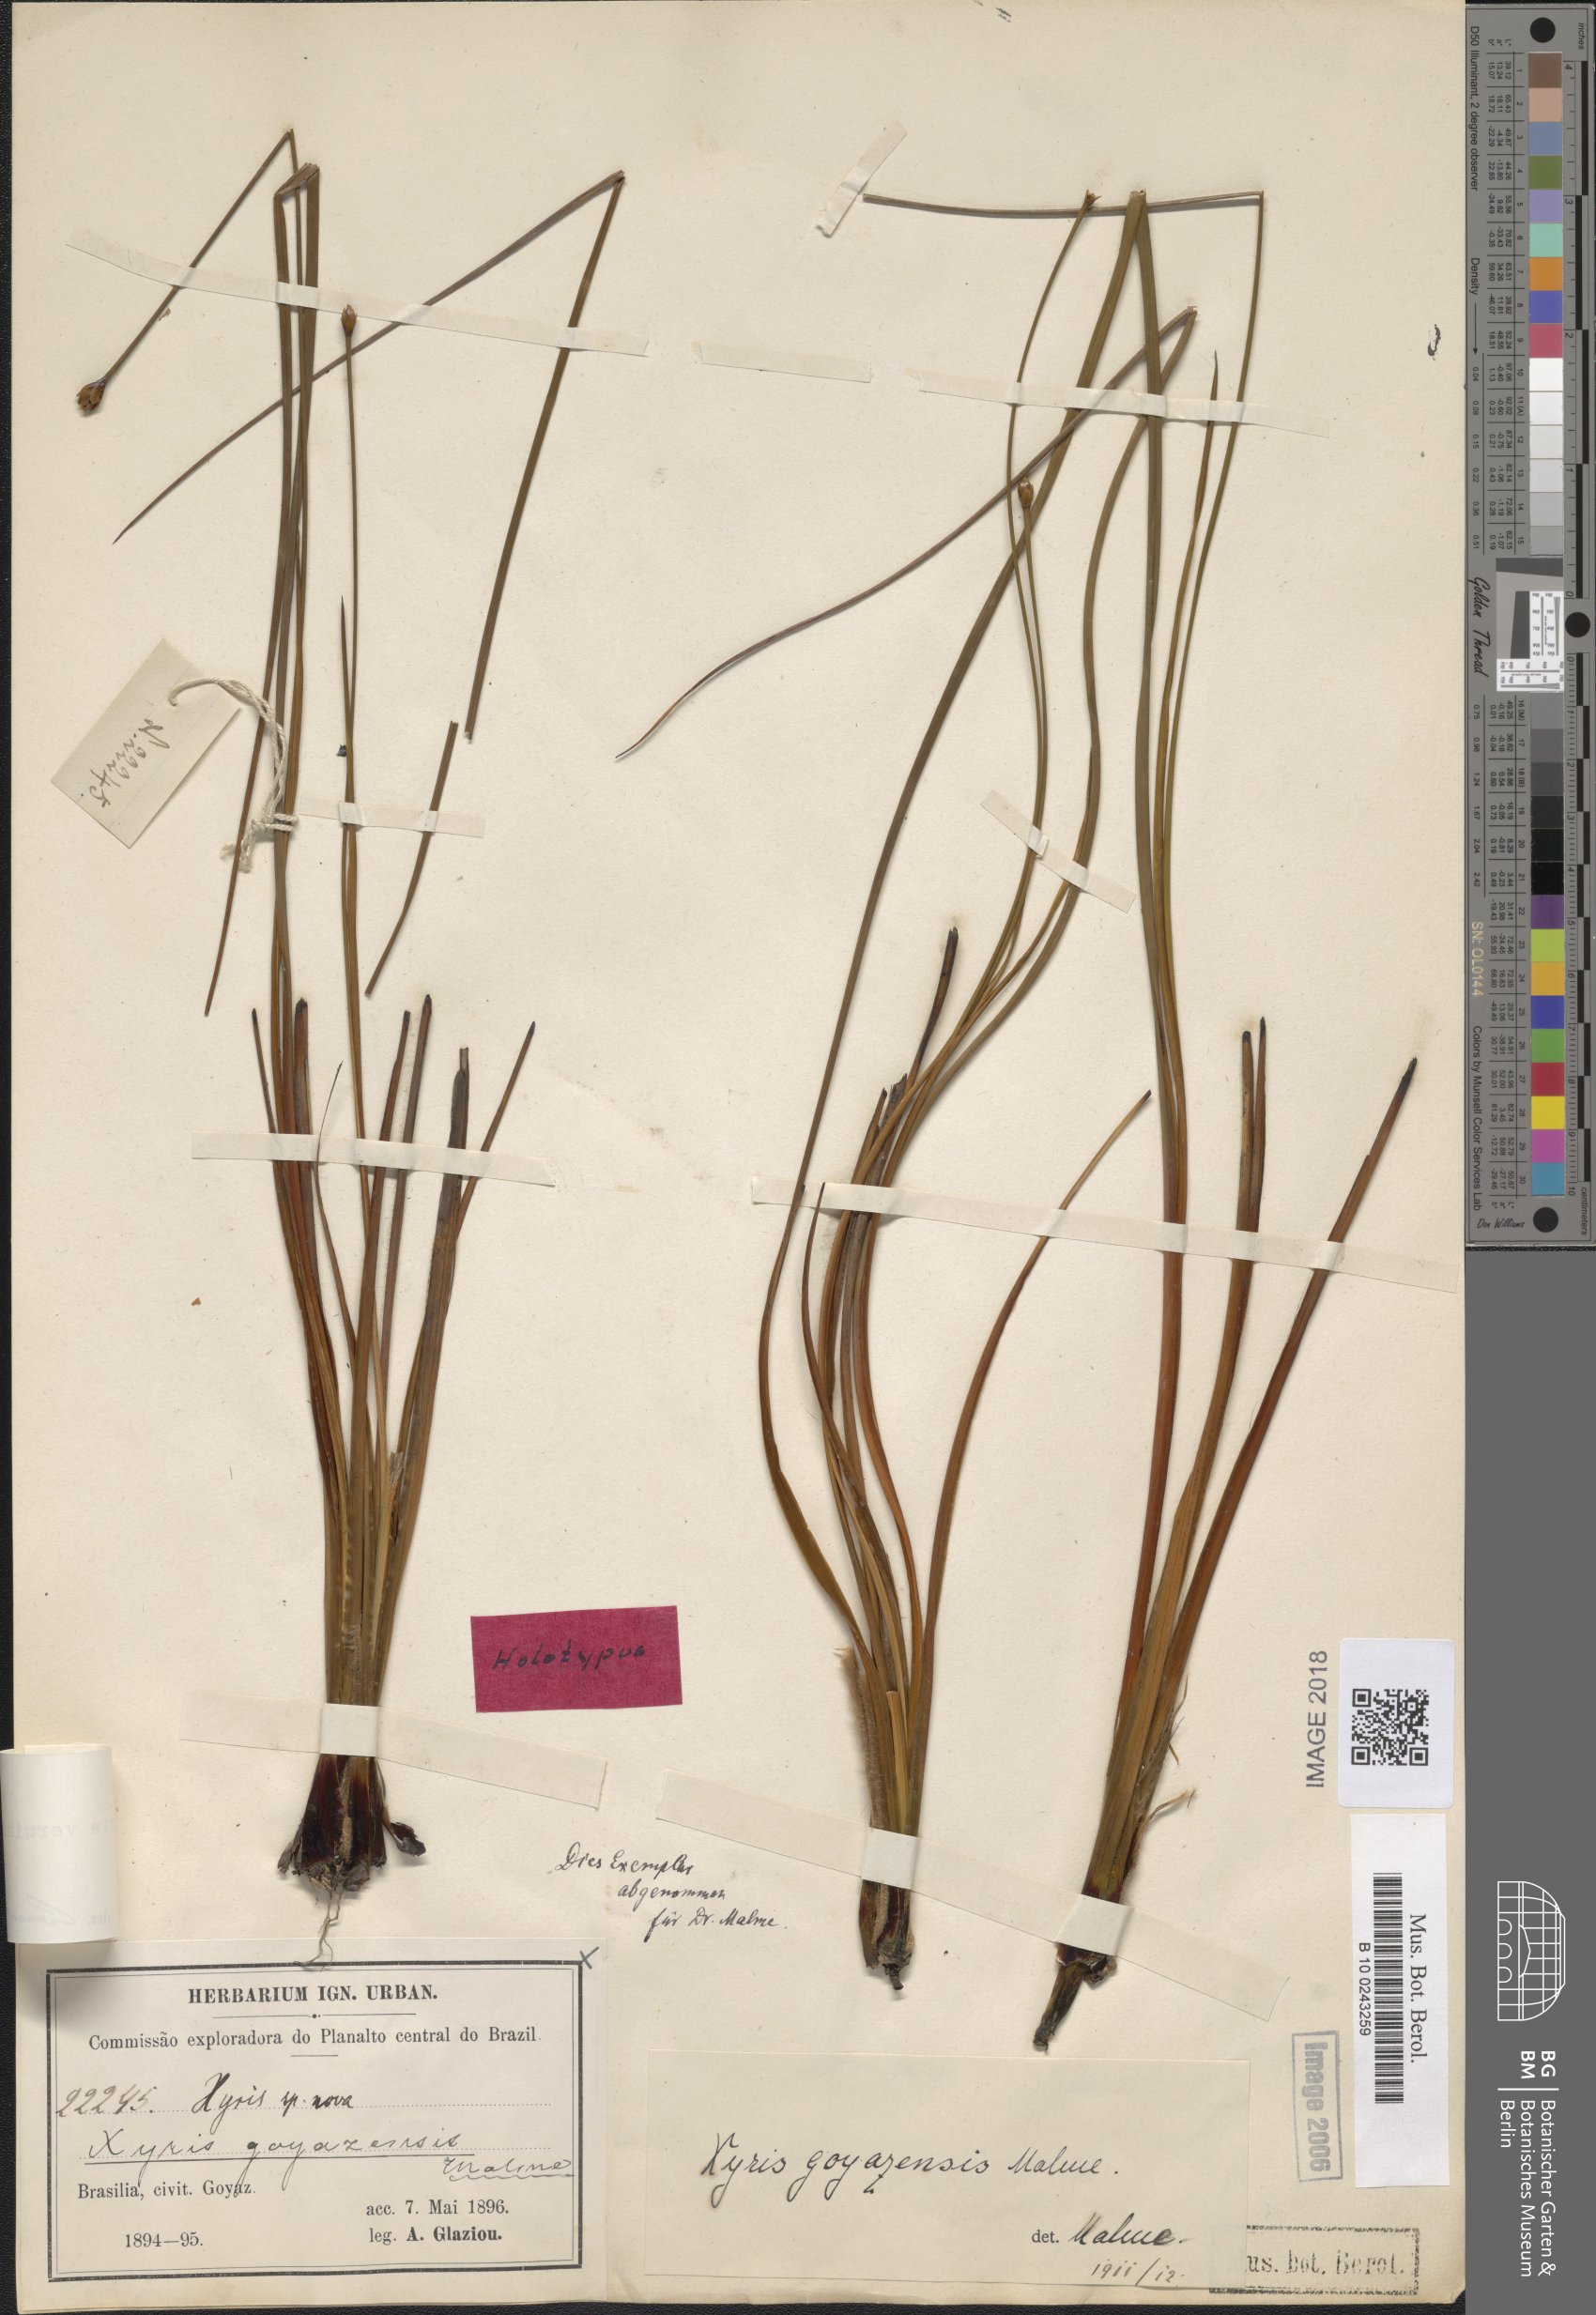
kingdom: Plantae
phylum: Tracheophyta
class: Liliopsida
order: Poales
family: Xyridaceae
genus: Xyris
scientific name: Xyris veruina
